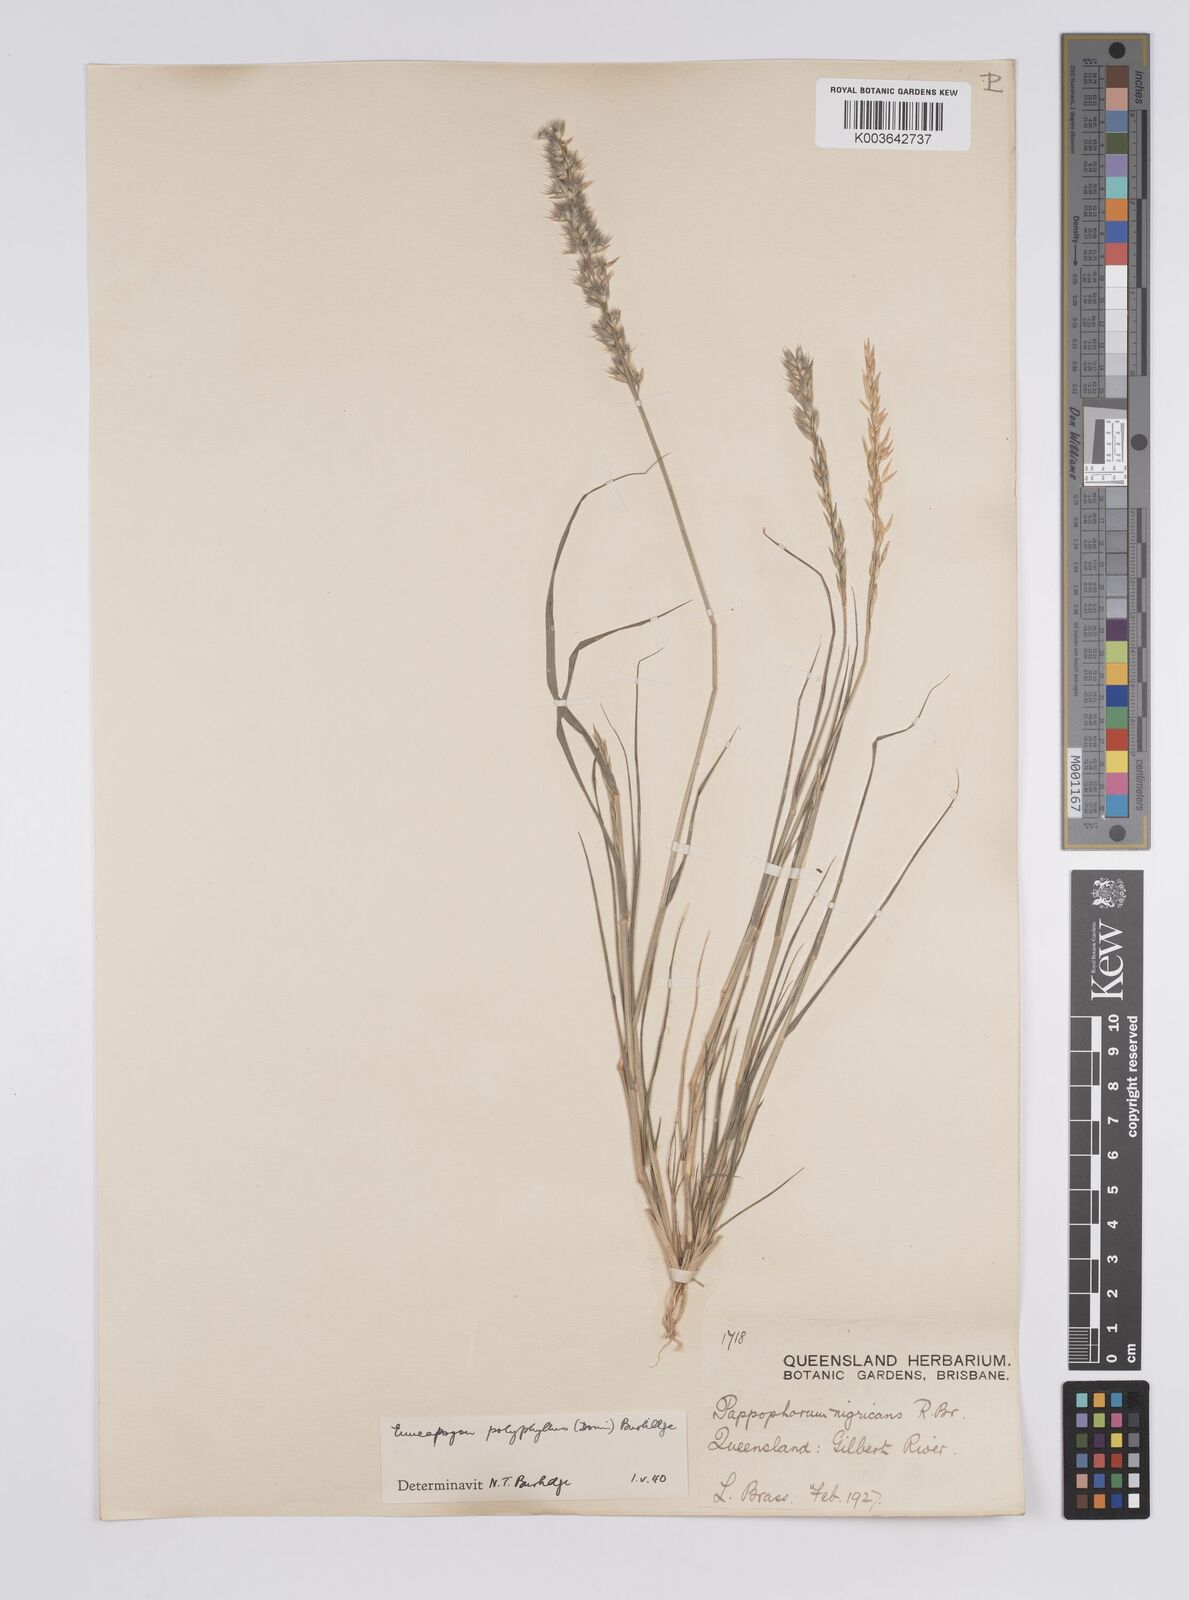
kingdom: Plantae
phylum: Tracheophyta
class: Liliopsida
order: Poales
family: Poaceae
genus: Enneapogon
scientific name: Enneapogon polyphyllus
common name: Leafy nineawn
